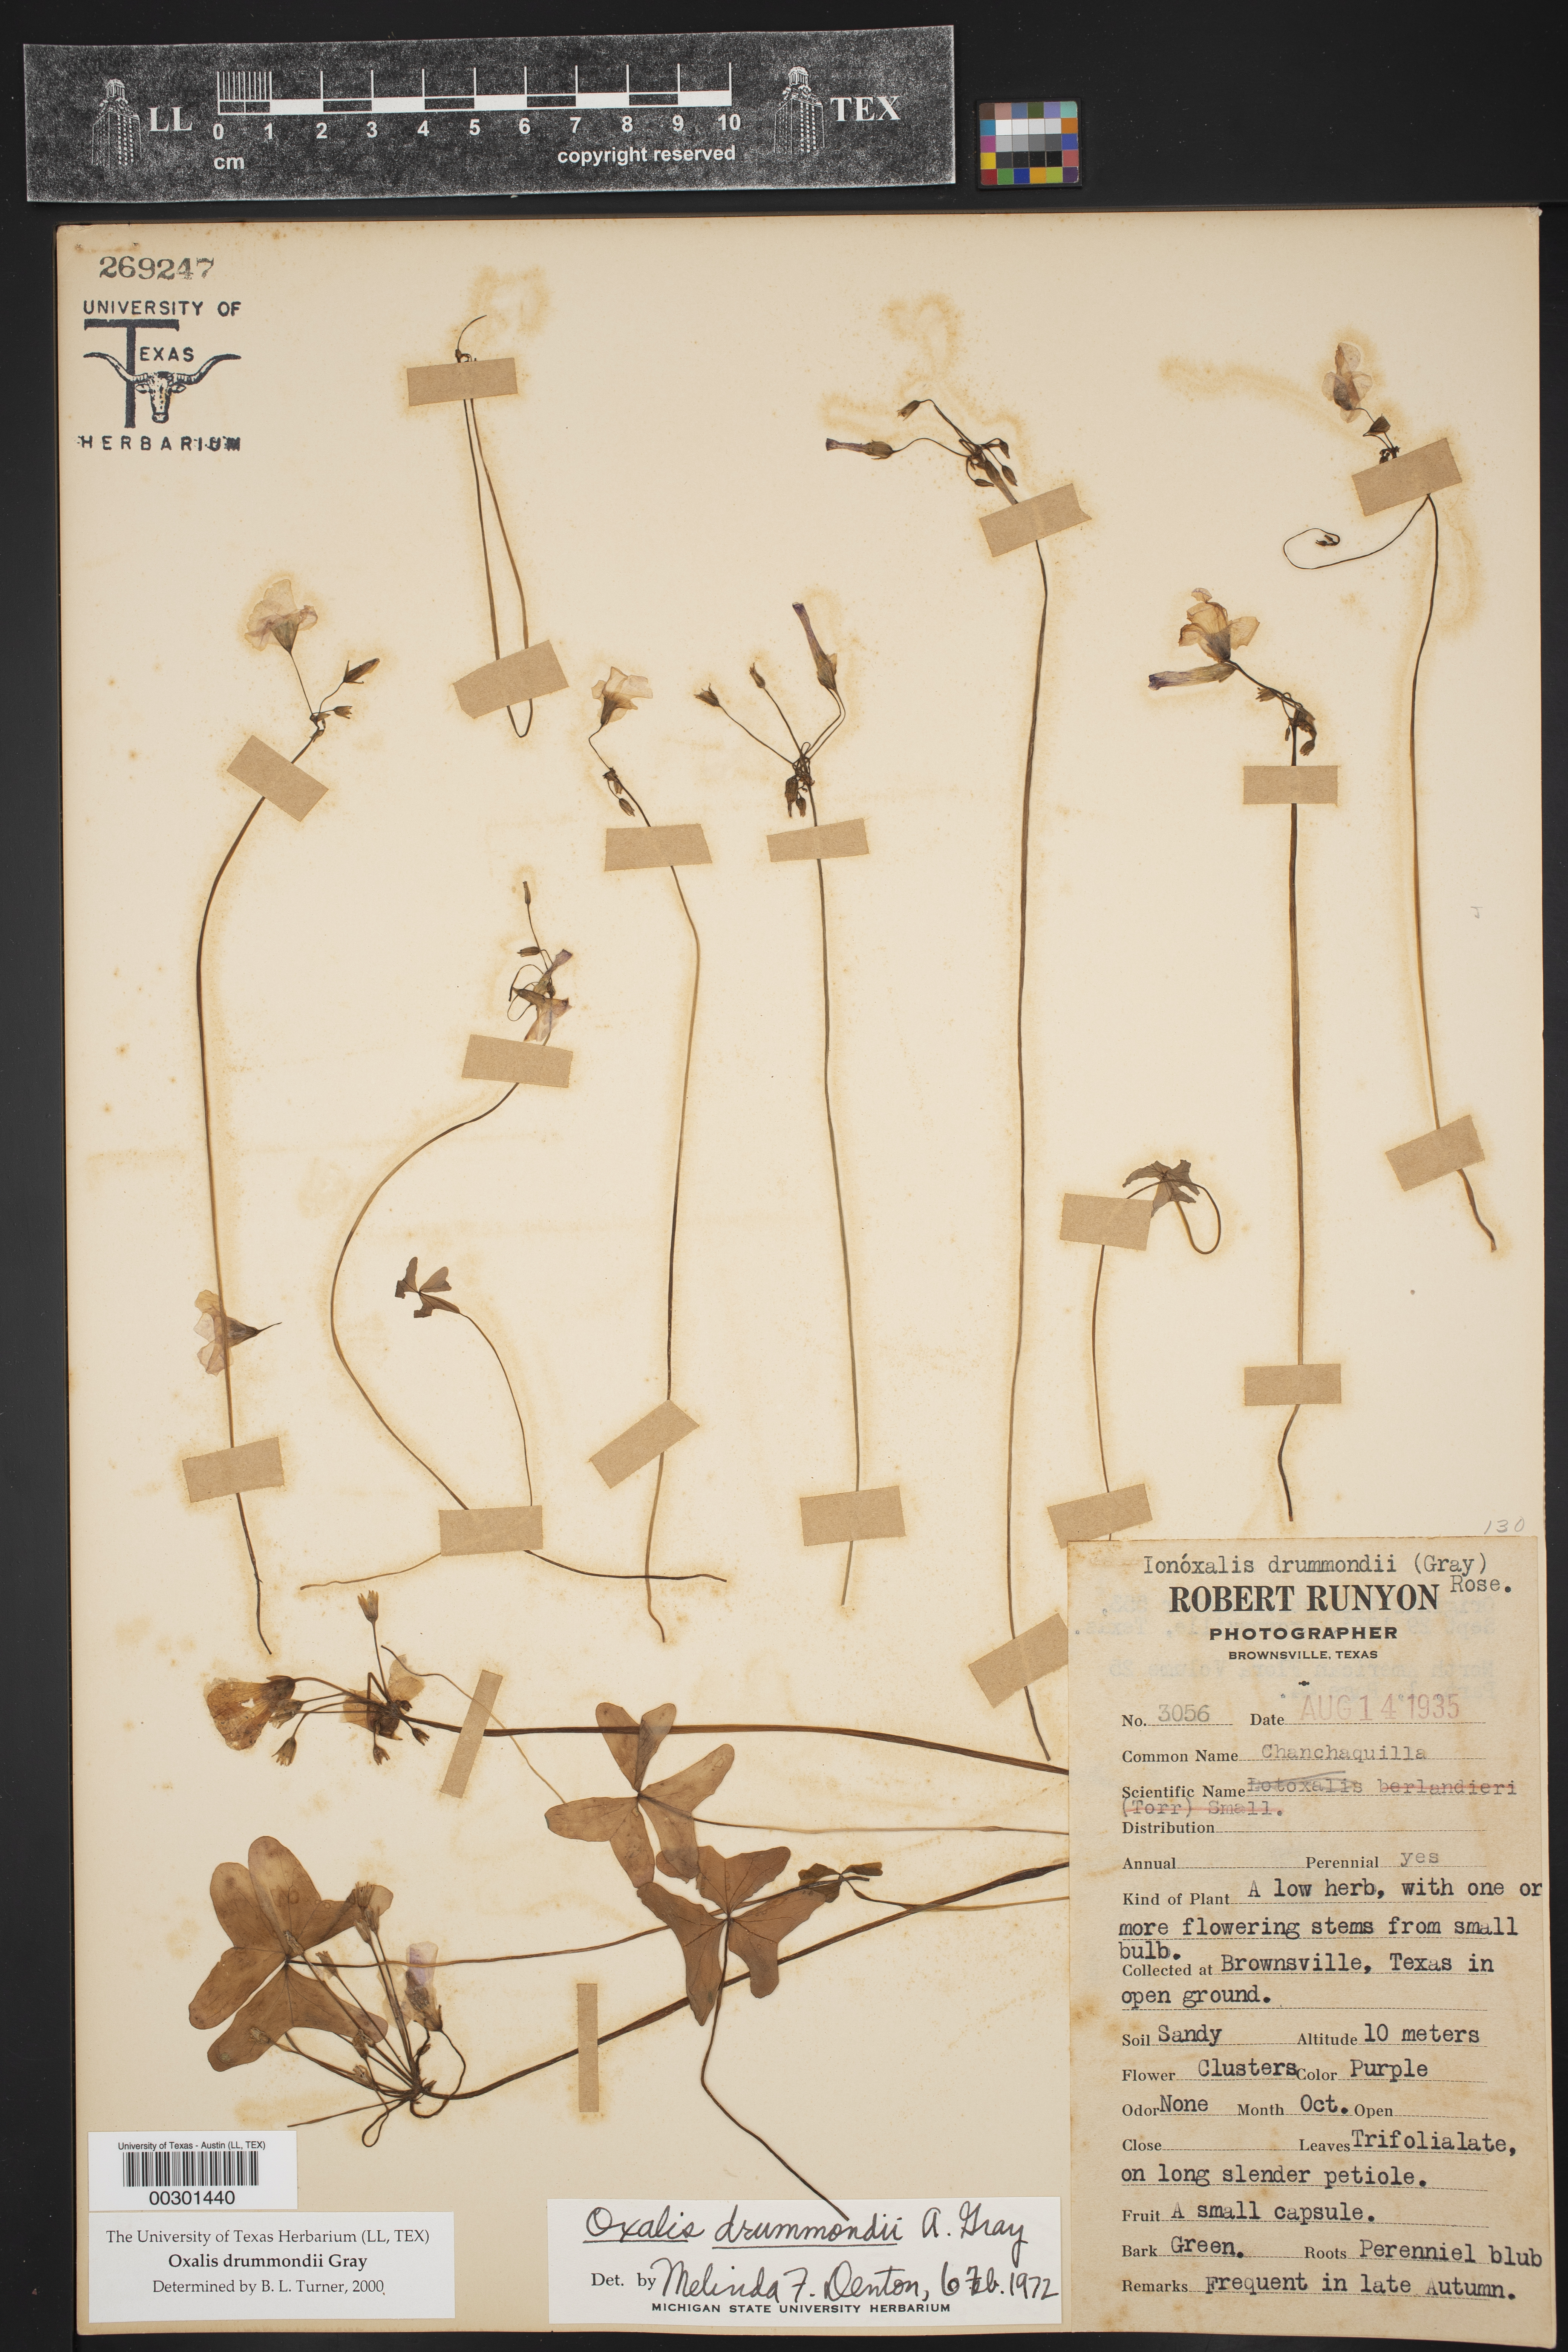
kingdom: Plantae
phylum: Tracheophyta
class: Magnoliopsida
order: Oxalidales
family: Oxalidaceae
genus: Oxalis
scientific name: Oxalis drummondii
